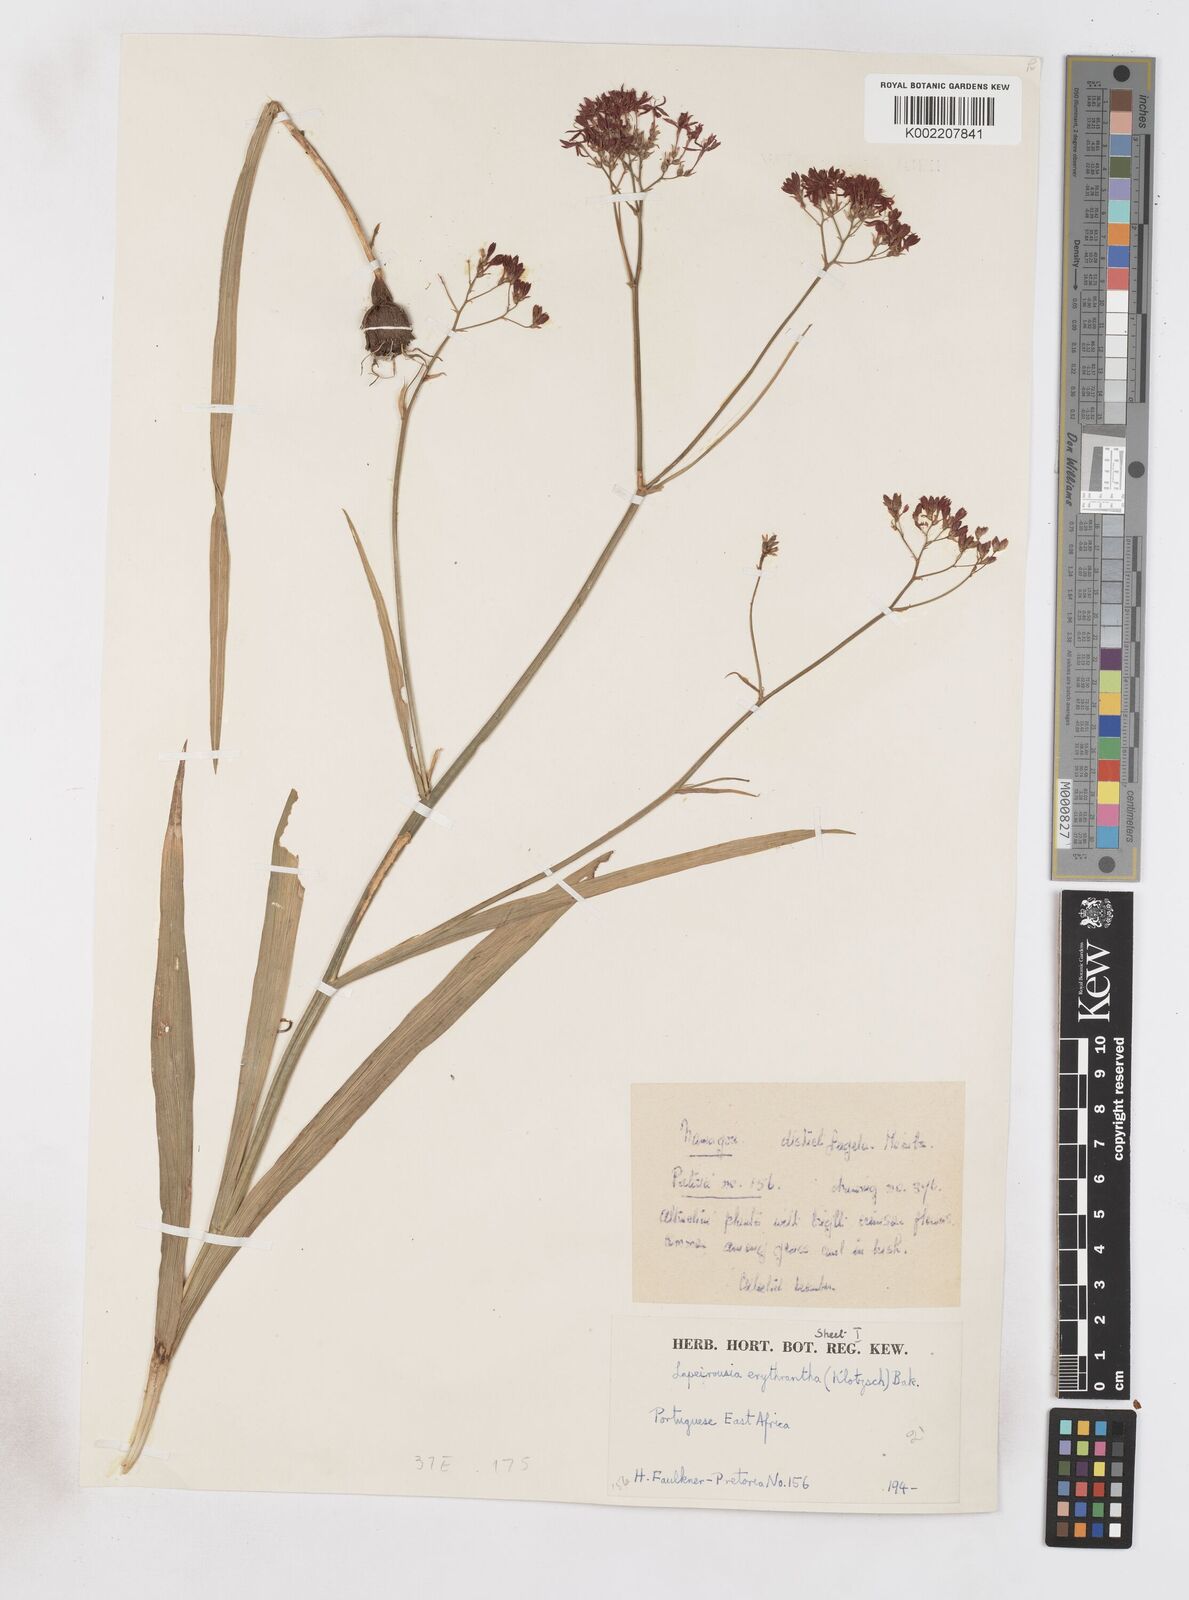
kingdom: Plantae
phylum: Tracheophyta
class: Liliopsida
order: Asparagales
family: Iridaceae
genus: Afrosolen
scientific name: Afrosolen erythranthus
